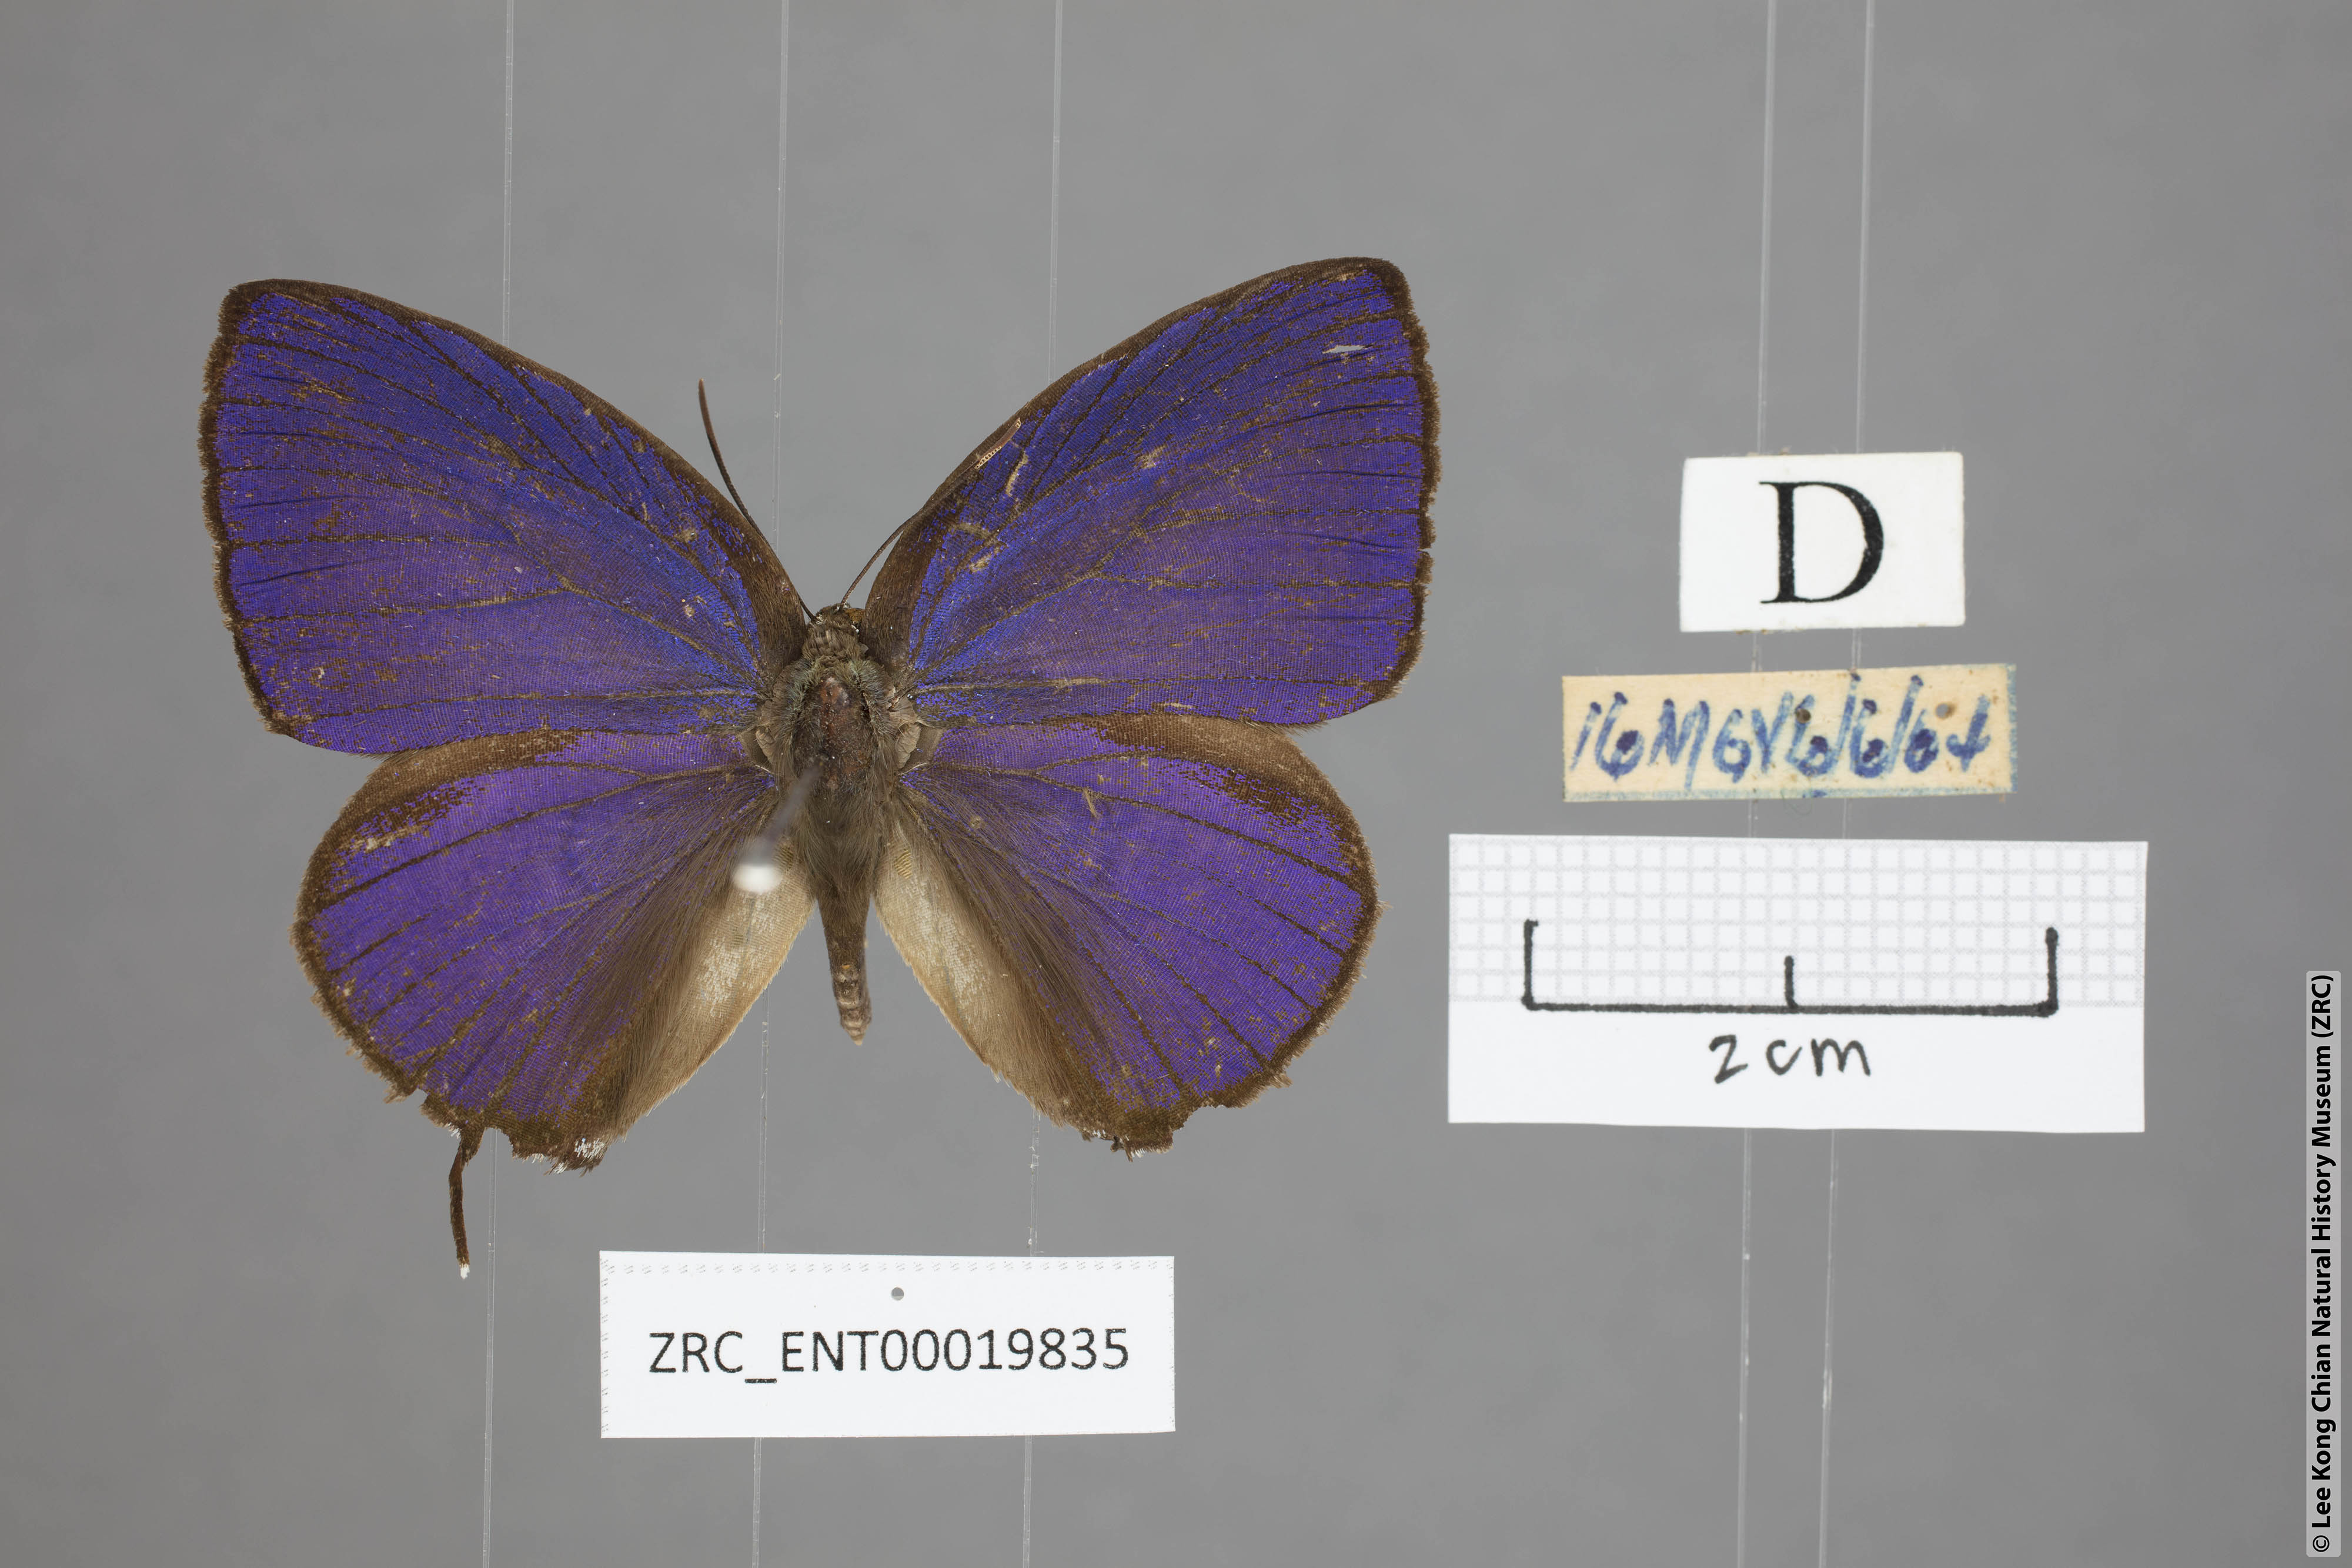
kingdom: Animalia
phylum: Arthropoda
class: Insecta
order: Lepidoptera
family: Lycaenidae
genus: Arhopala
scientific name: Arhopala
